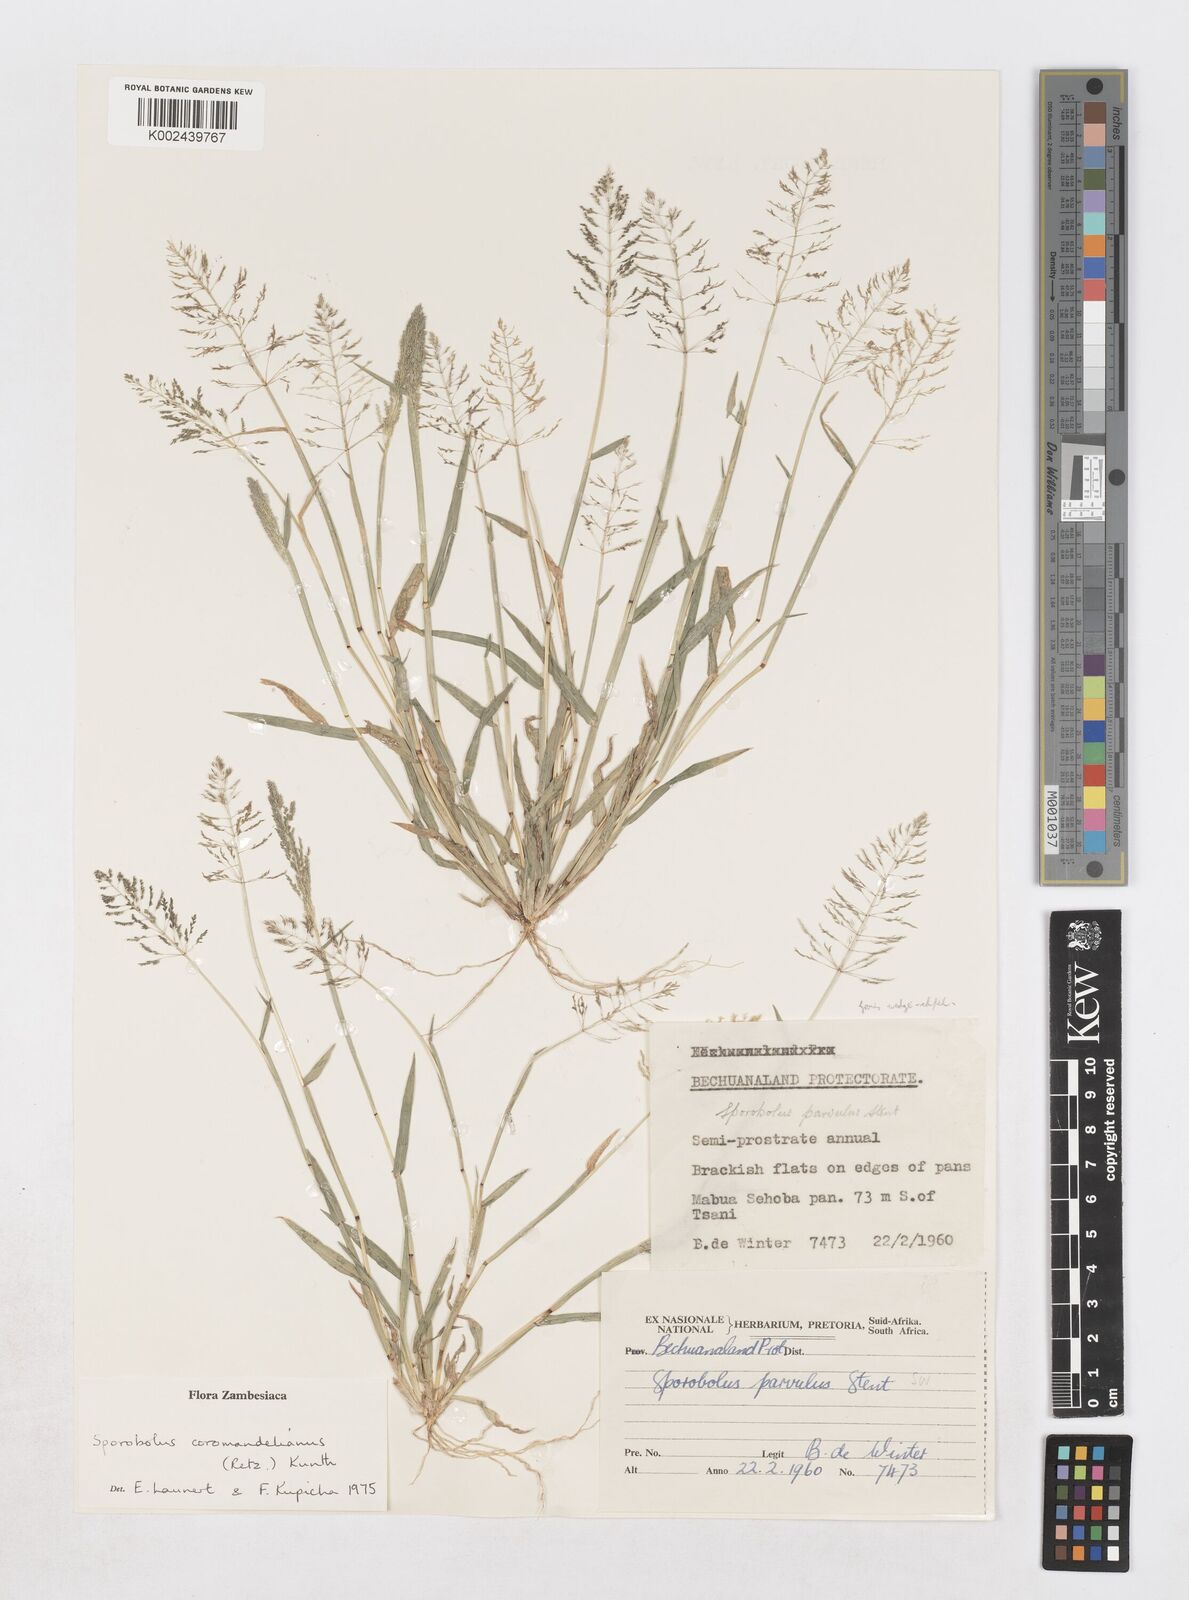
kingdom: Plantae
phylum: Tracheophyta
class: Liliopsida
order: Poales
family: Poaceae
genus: Sporobolus
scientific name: Sporobolus coromandelianus
